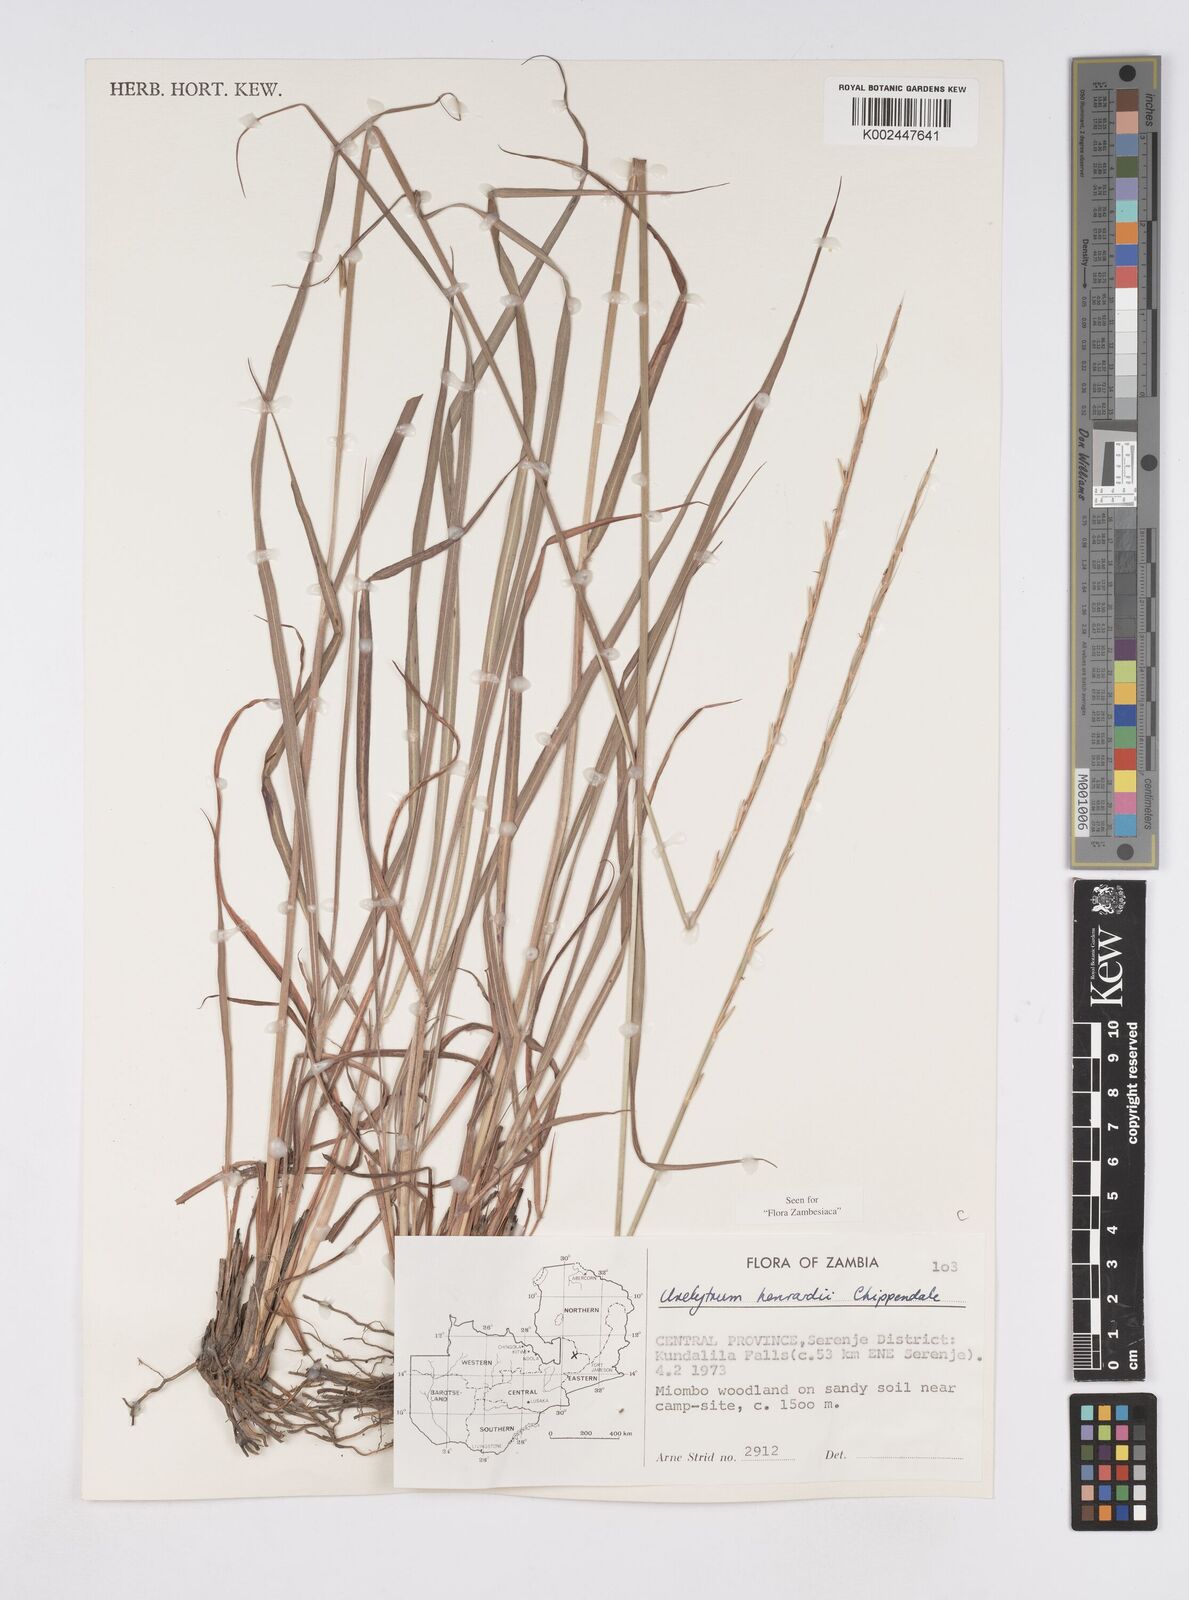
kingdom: Plantae
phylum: Tracheophyta
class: Liliopsida
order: Poales
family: Poaceae
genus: Urelytrum
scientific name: Urelytrum henrardii
